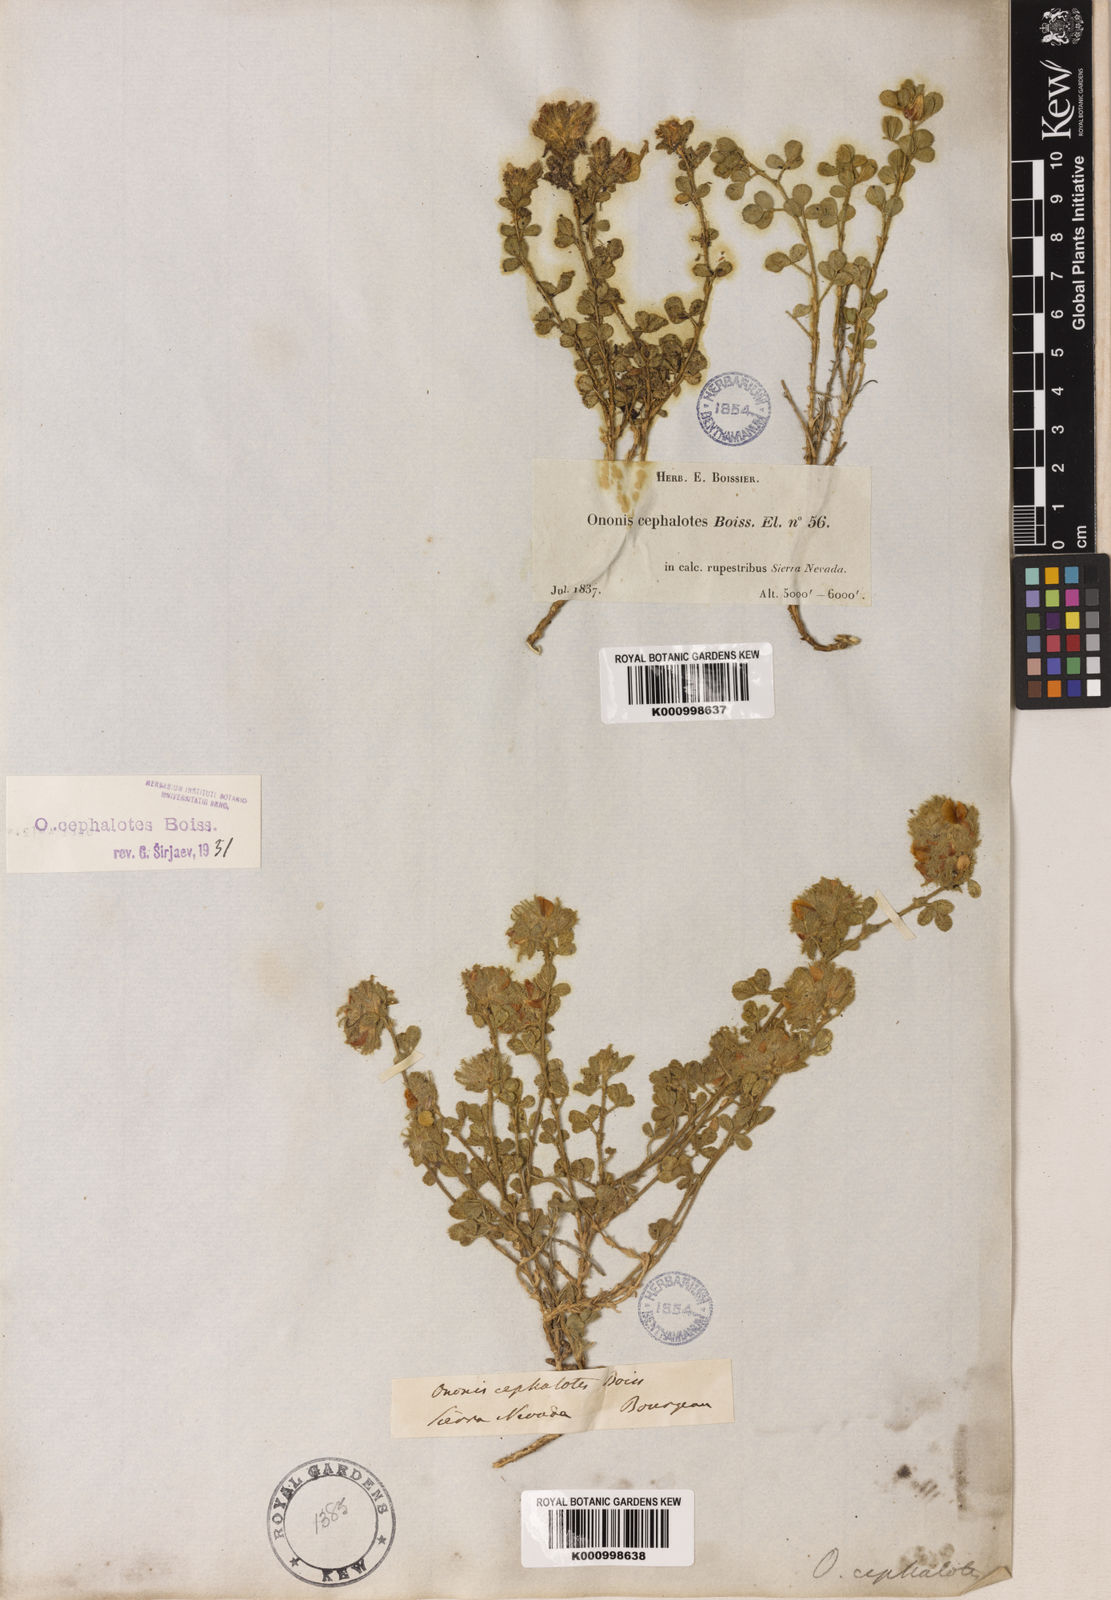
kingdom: Plantae
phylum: Tracheophyta
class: Magnoliopsida
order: Fabales
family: Fabaceae
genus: Ononis
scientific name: Ononis cephalotes
